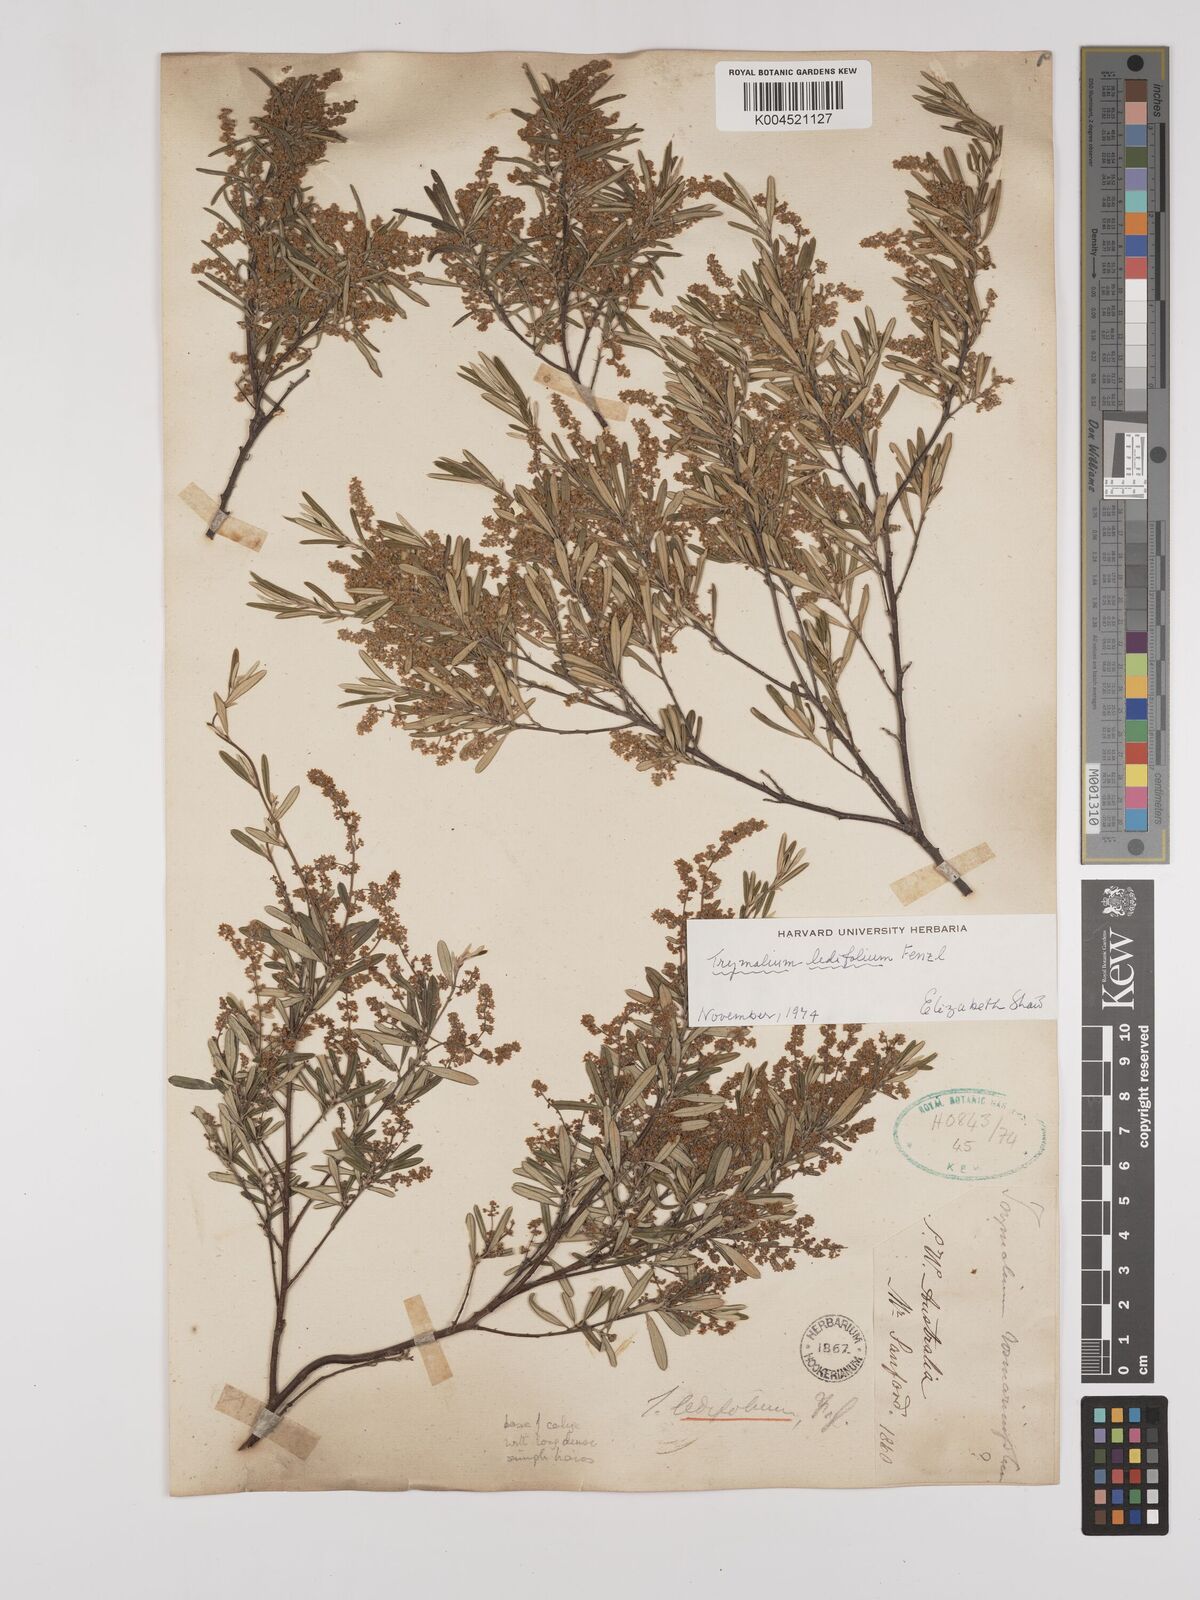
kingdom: Plantae
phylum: Tracheophyta
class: Magnoliopsida
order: Rosales
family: Rhamnaceae
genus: Trymalium
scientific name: Trymalium ledifolium
